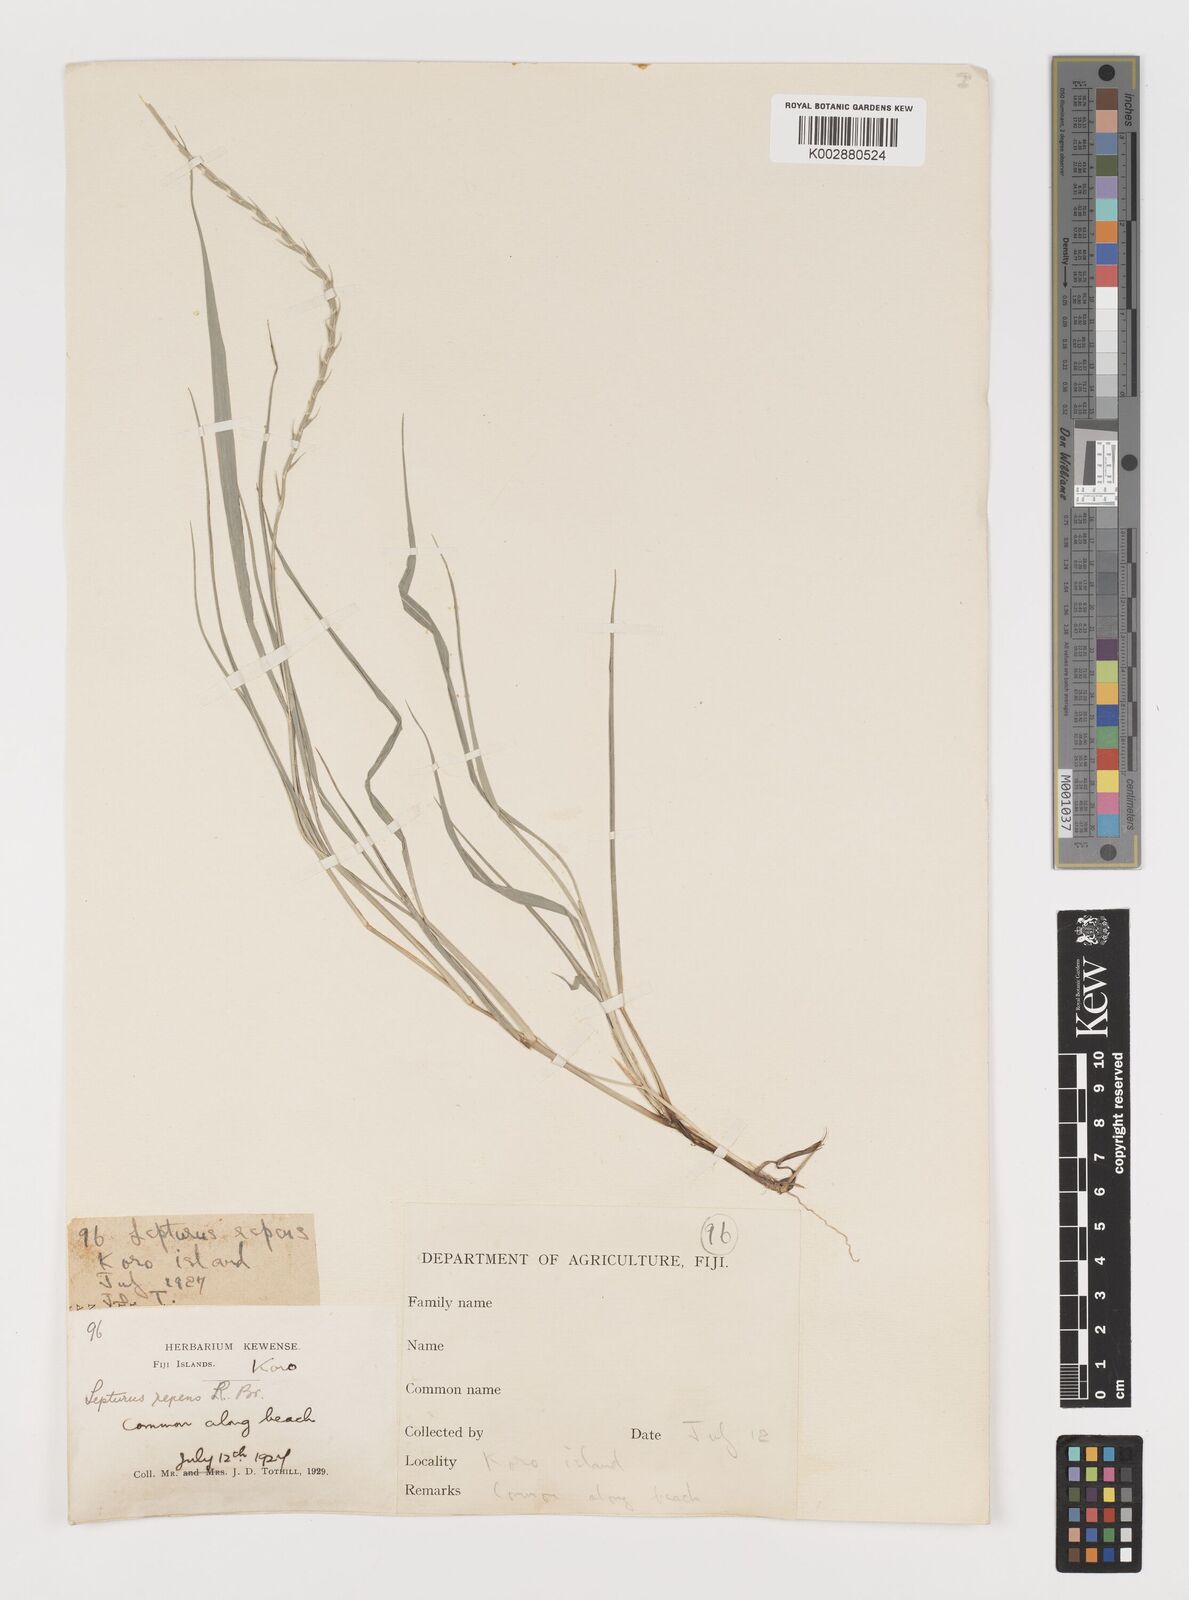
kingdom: Plantae
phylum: Tracheophyta
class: Liliopsida
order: Poales
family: Poaceae
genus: Lepturus
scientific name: Lepturus repens
